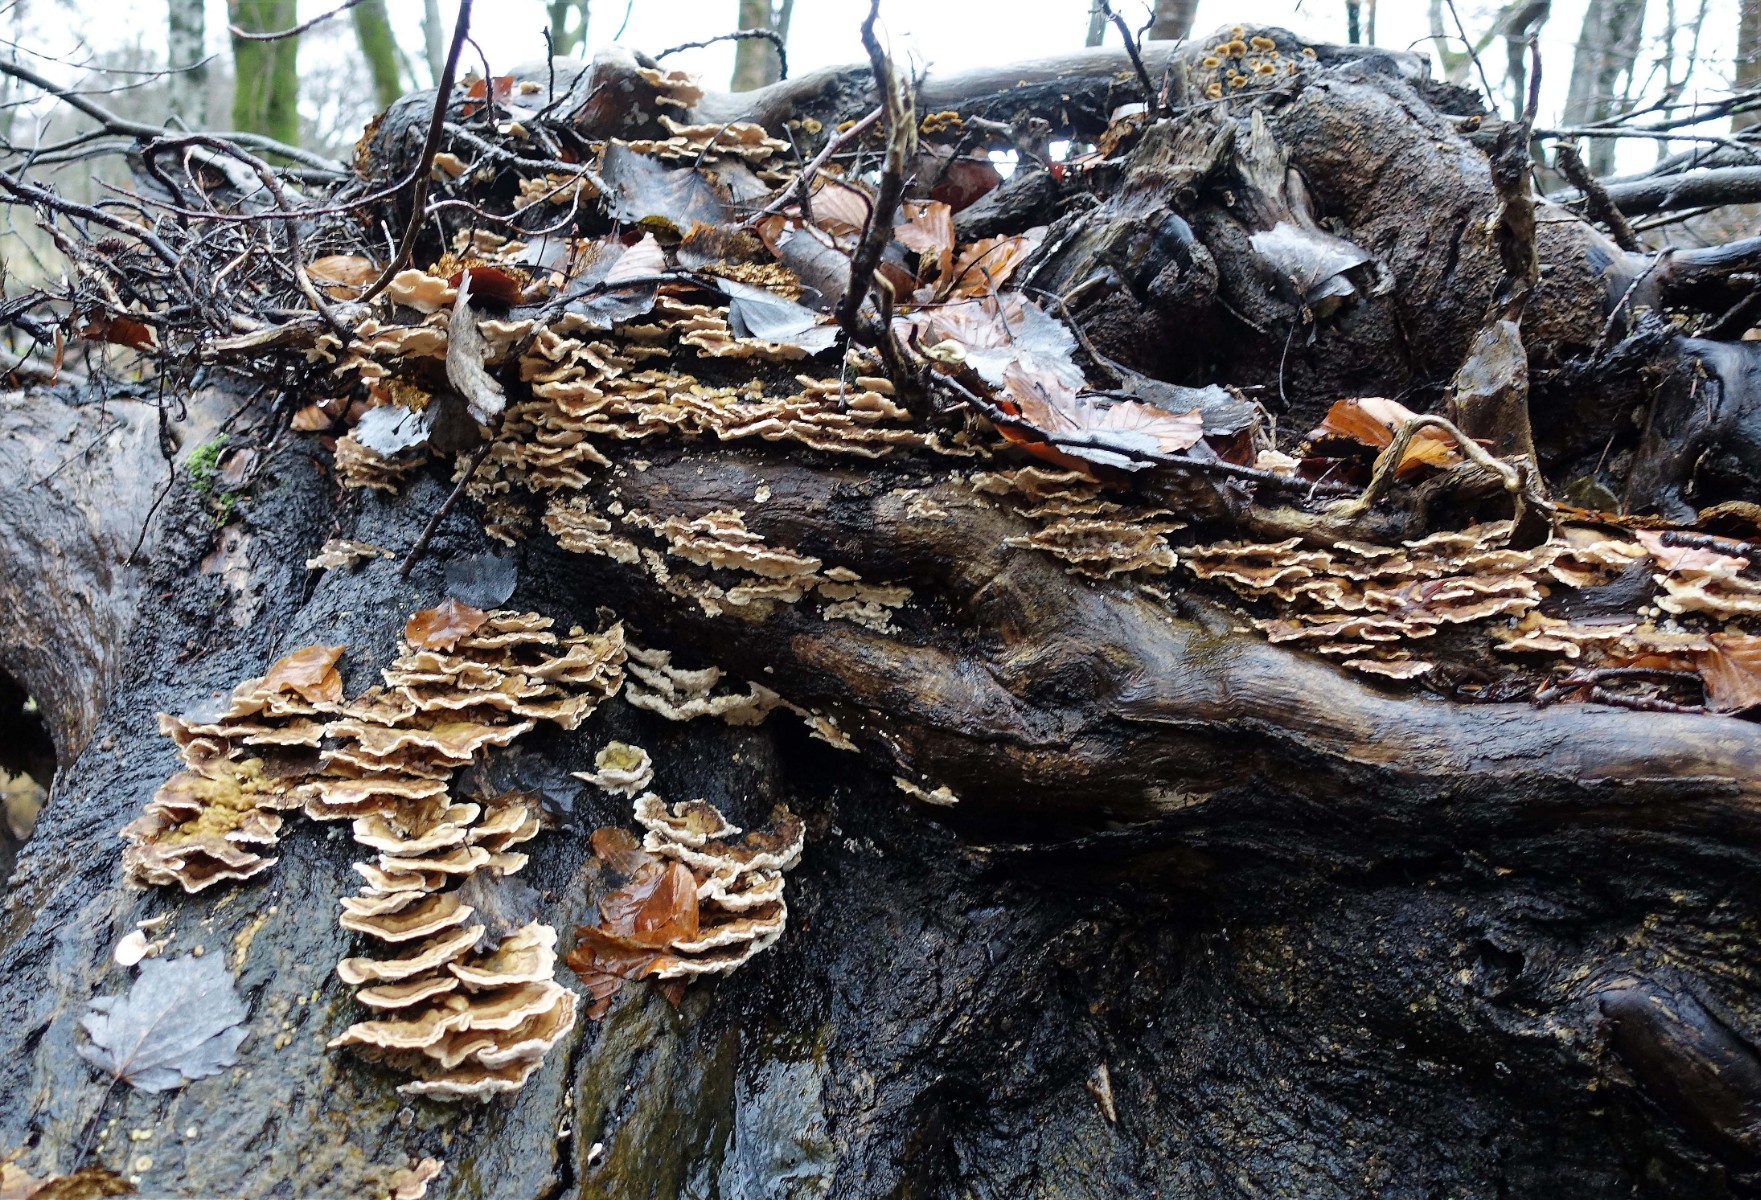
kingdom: Fungi
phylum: Basidiomycota
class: Agaricomycetes
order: Polyporales
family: Polyporaceae
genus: Trametes
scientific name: Trametes ochracea
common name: bæltet læderporesvamp
